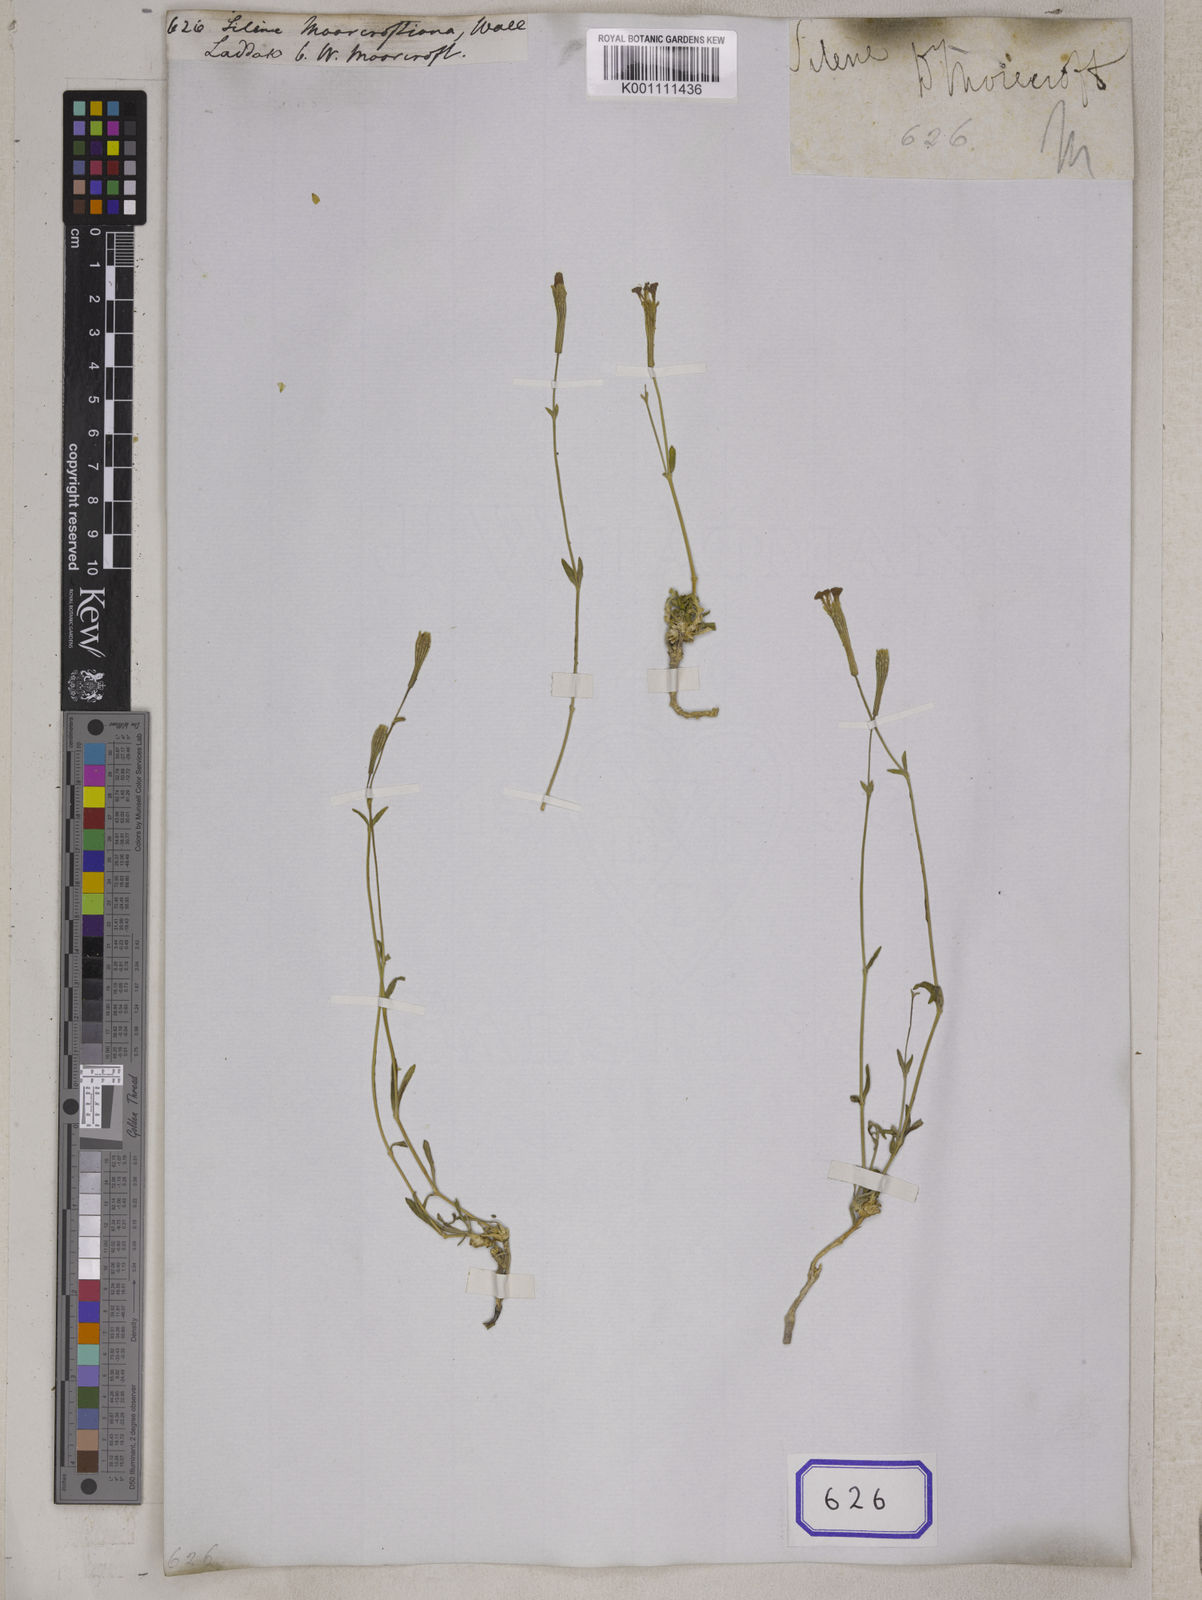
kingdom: Plantae
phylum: Tracheophyta
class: Magnoliopsida
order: Caryophyllales
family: Caryophyllaceae
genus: Silene
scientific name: Silene
